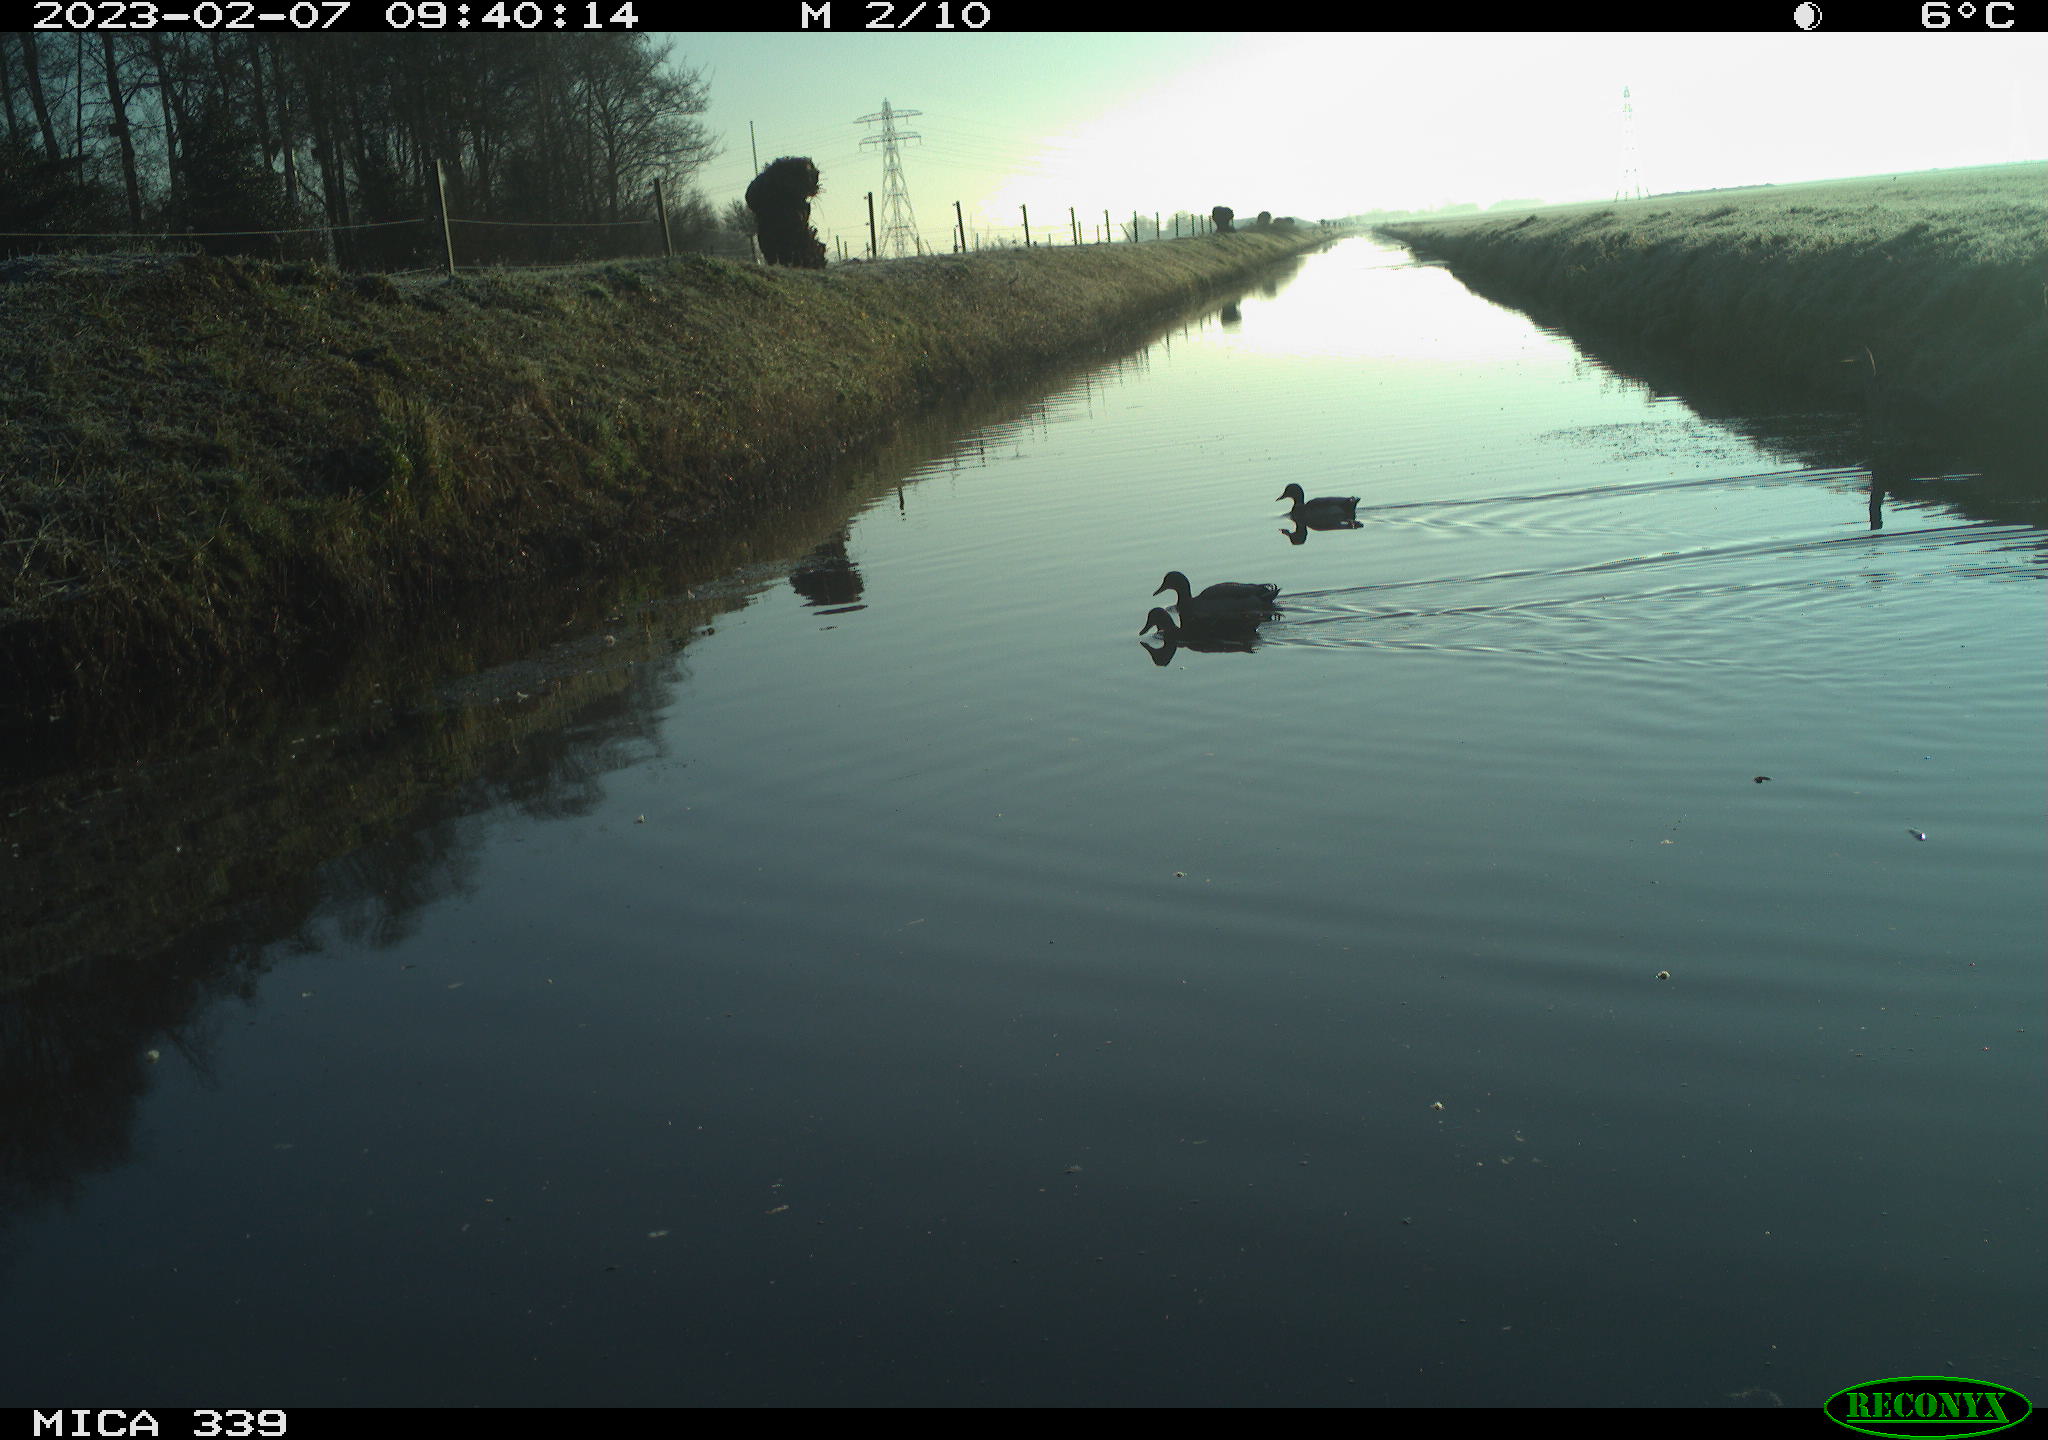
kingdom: Animalia
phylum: Chordata
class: Aves
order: Anseriformes
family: Anatidae
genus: Anas
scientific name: Anas
